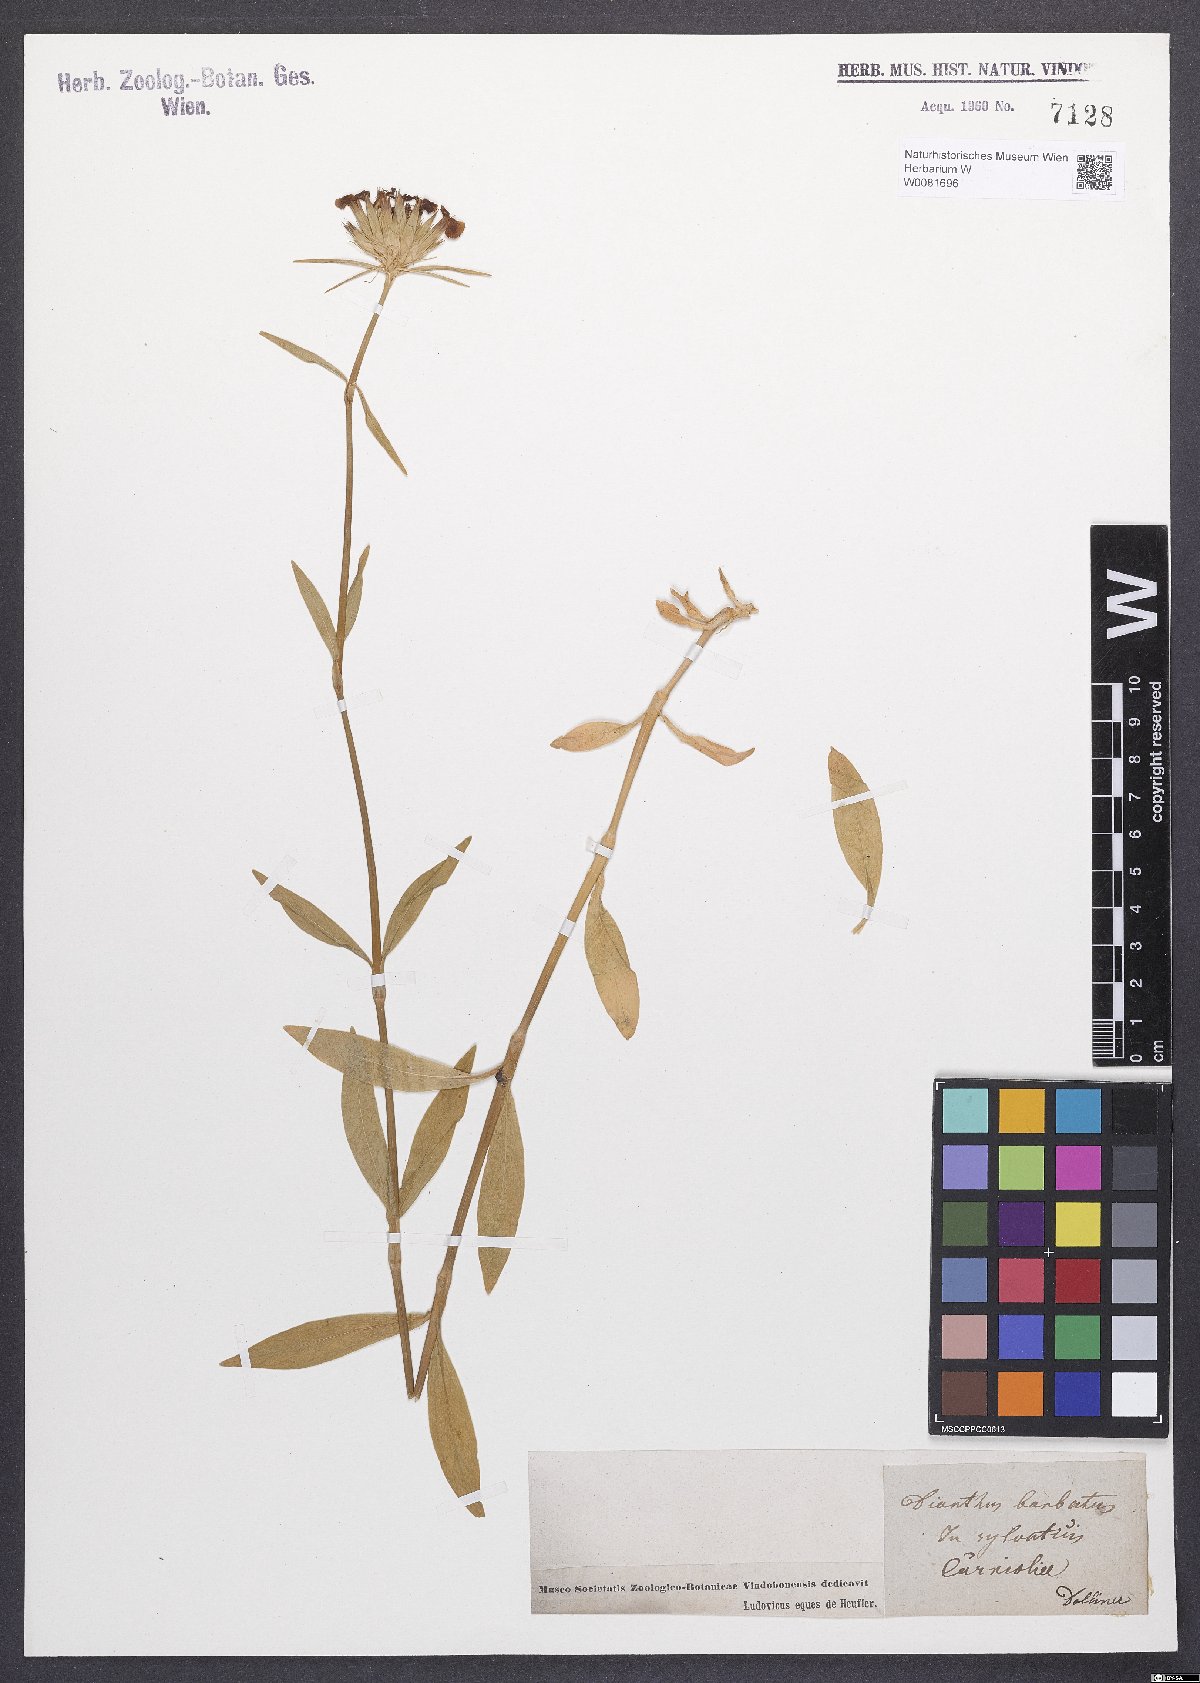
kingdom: Plantae
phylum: Tracheophyta
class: Magnoliopsida
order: Caryophyllales
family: Caryophyllaceae
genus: Dianthus
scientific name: Dianthus barbatus
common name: Sweet-william
